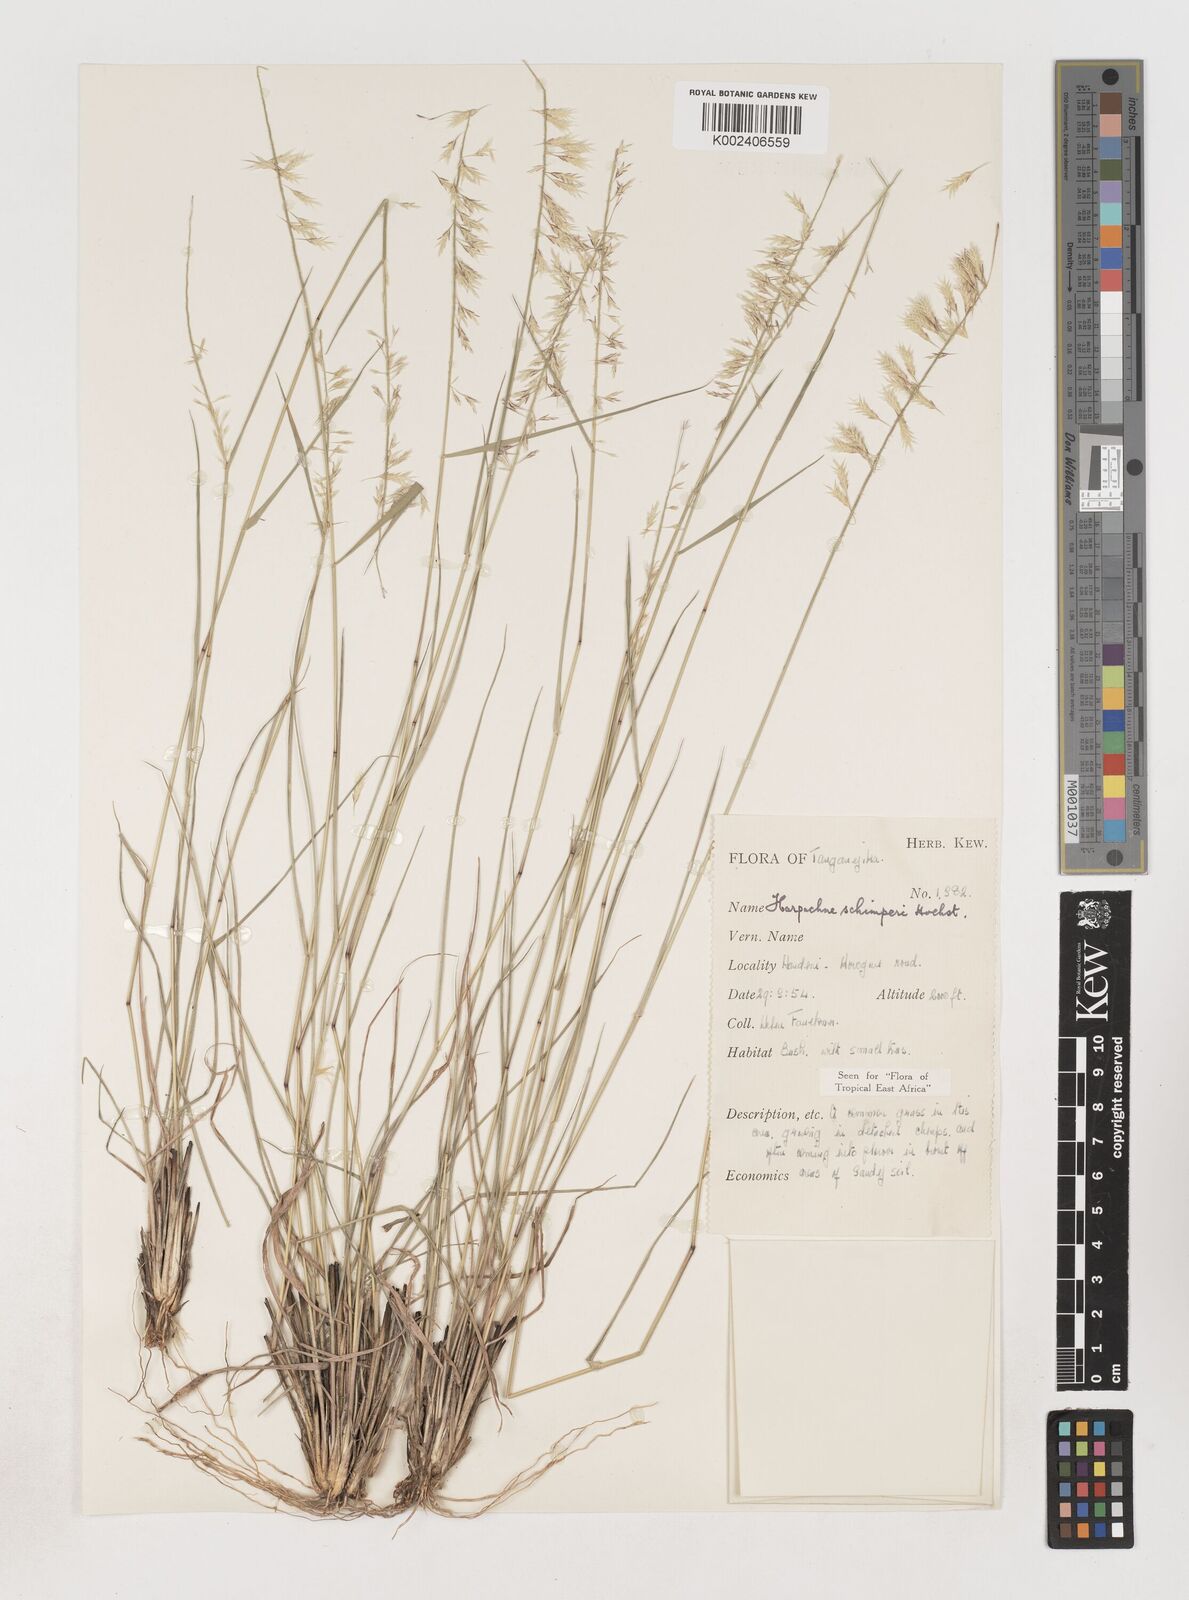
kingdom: Plantae
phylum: Tracheophyta
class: Liliopsida
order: Poales
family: Poaceae
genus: Harpachne
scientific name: Harpachne schimperi
